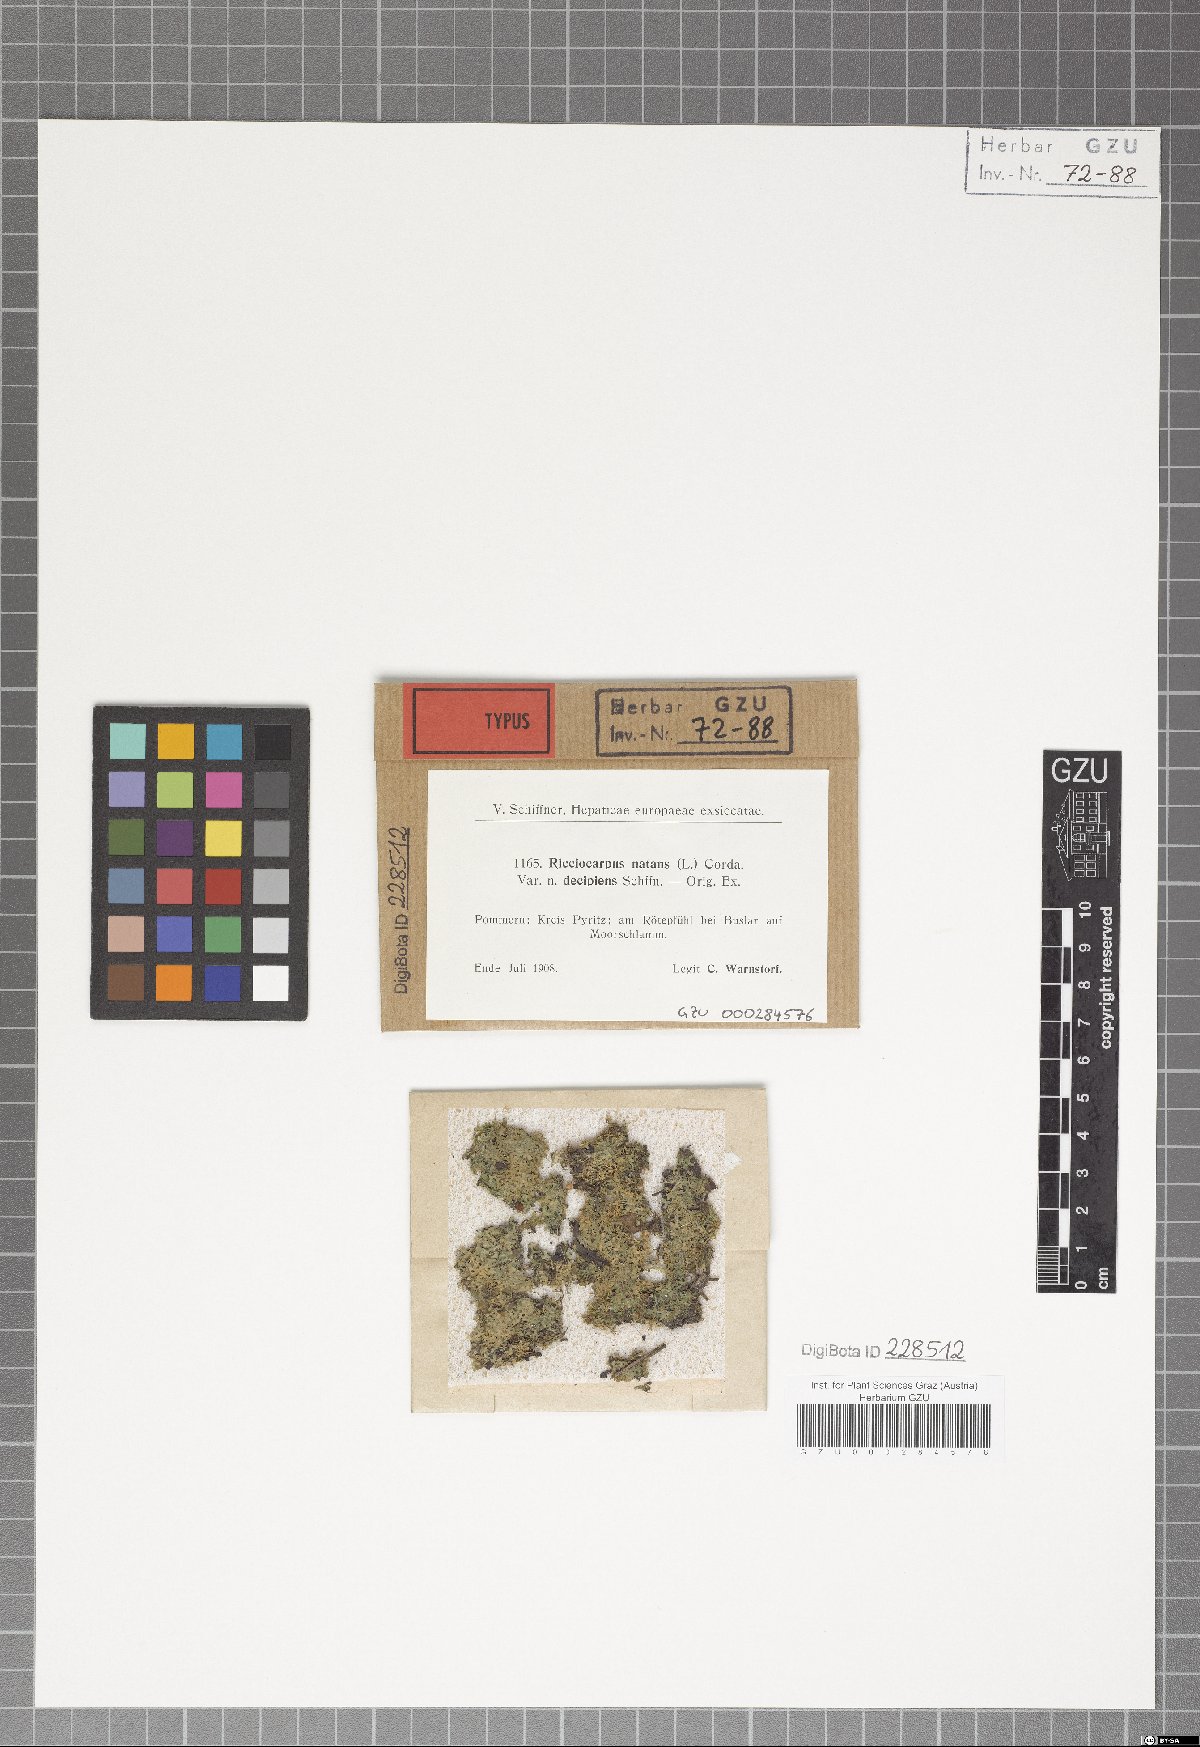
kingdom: Plantae
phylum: Marchantiophyta
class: Marchantiopsida
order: Marchantiales
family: Ricciaceae
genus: Ricciocarpos
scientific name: Ricciocarpos natans
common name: Purple-fringed liverwort
